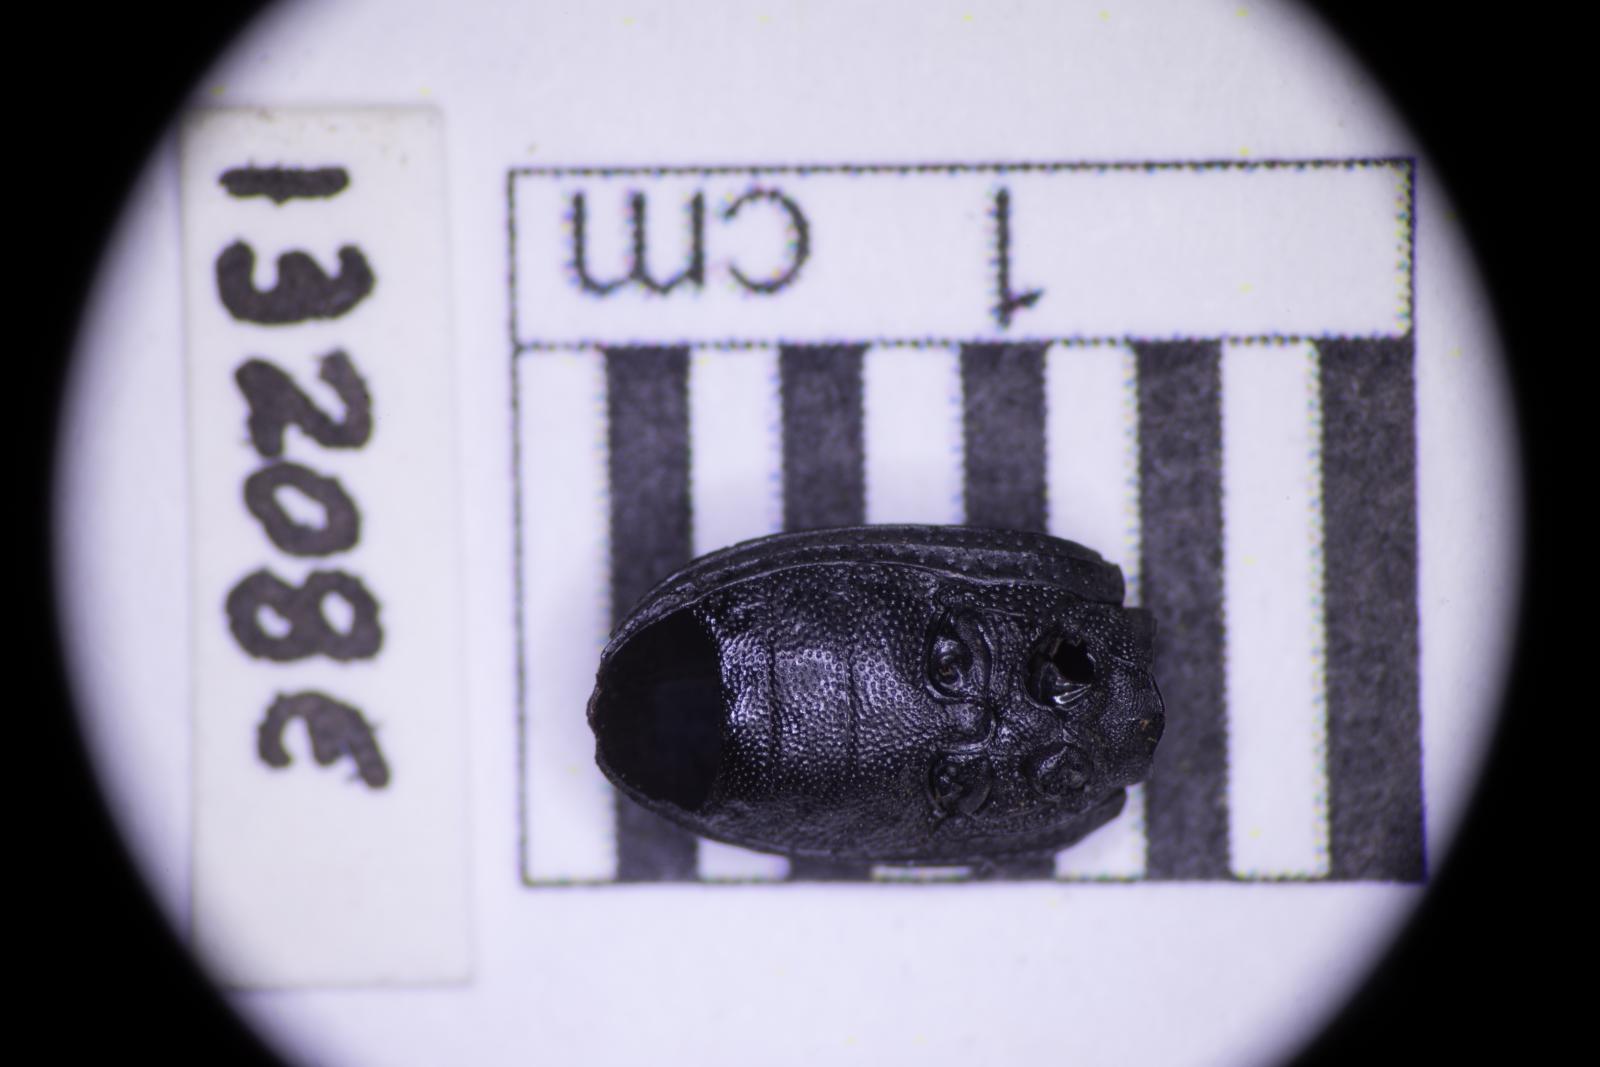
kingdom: Animalia
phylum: Arthropoda
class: Insecta
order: Coleoptera
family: Tenebrionidae
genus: Apsena
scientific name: Apsena laticornis
